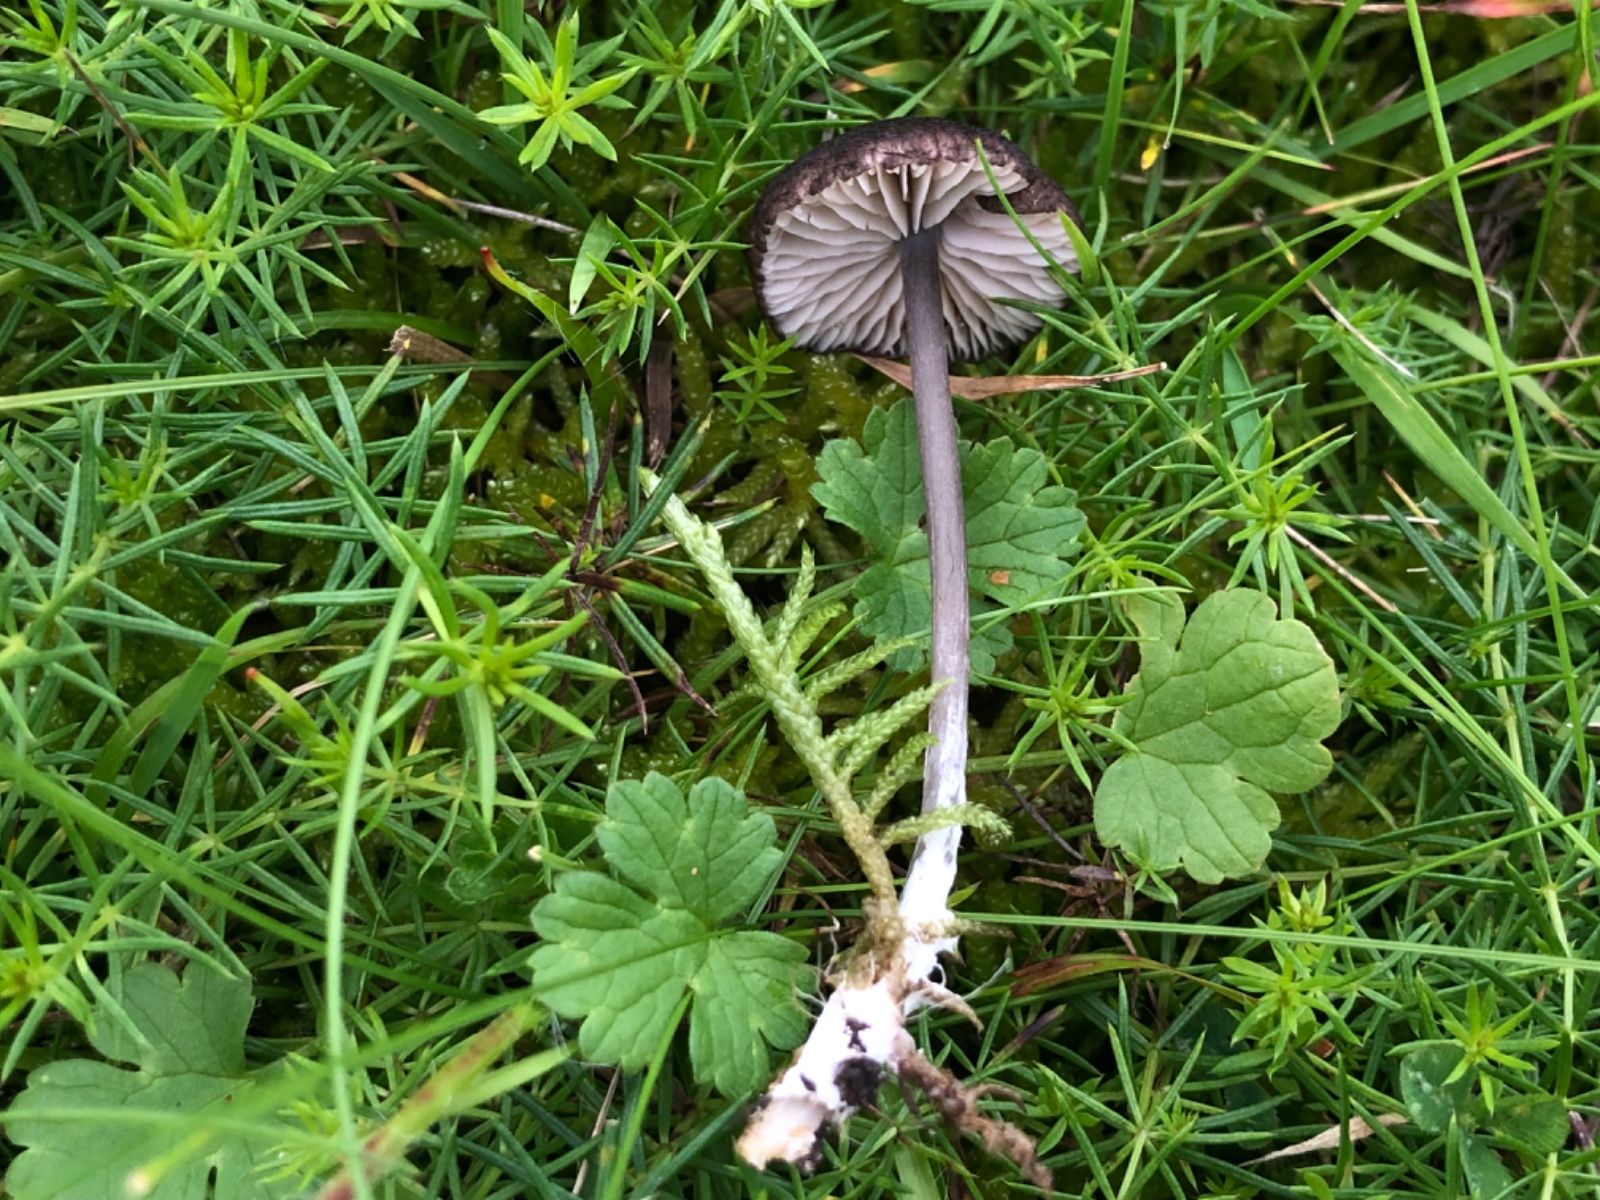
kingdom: Fungi
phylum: Basidiomycota
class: Agaricomycetes
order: Agaricales
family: Entolomataceae
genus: Entoloma
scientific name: Entoloma porphyrogriseum
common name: porfyrgrå rødblad
